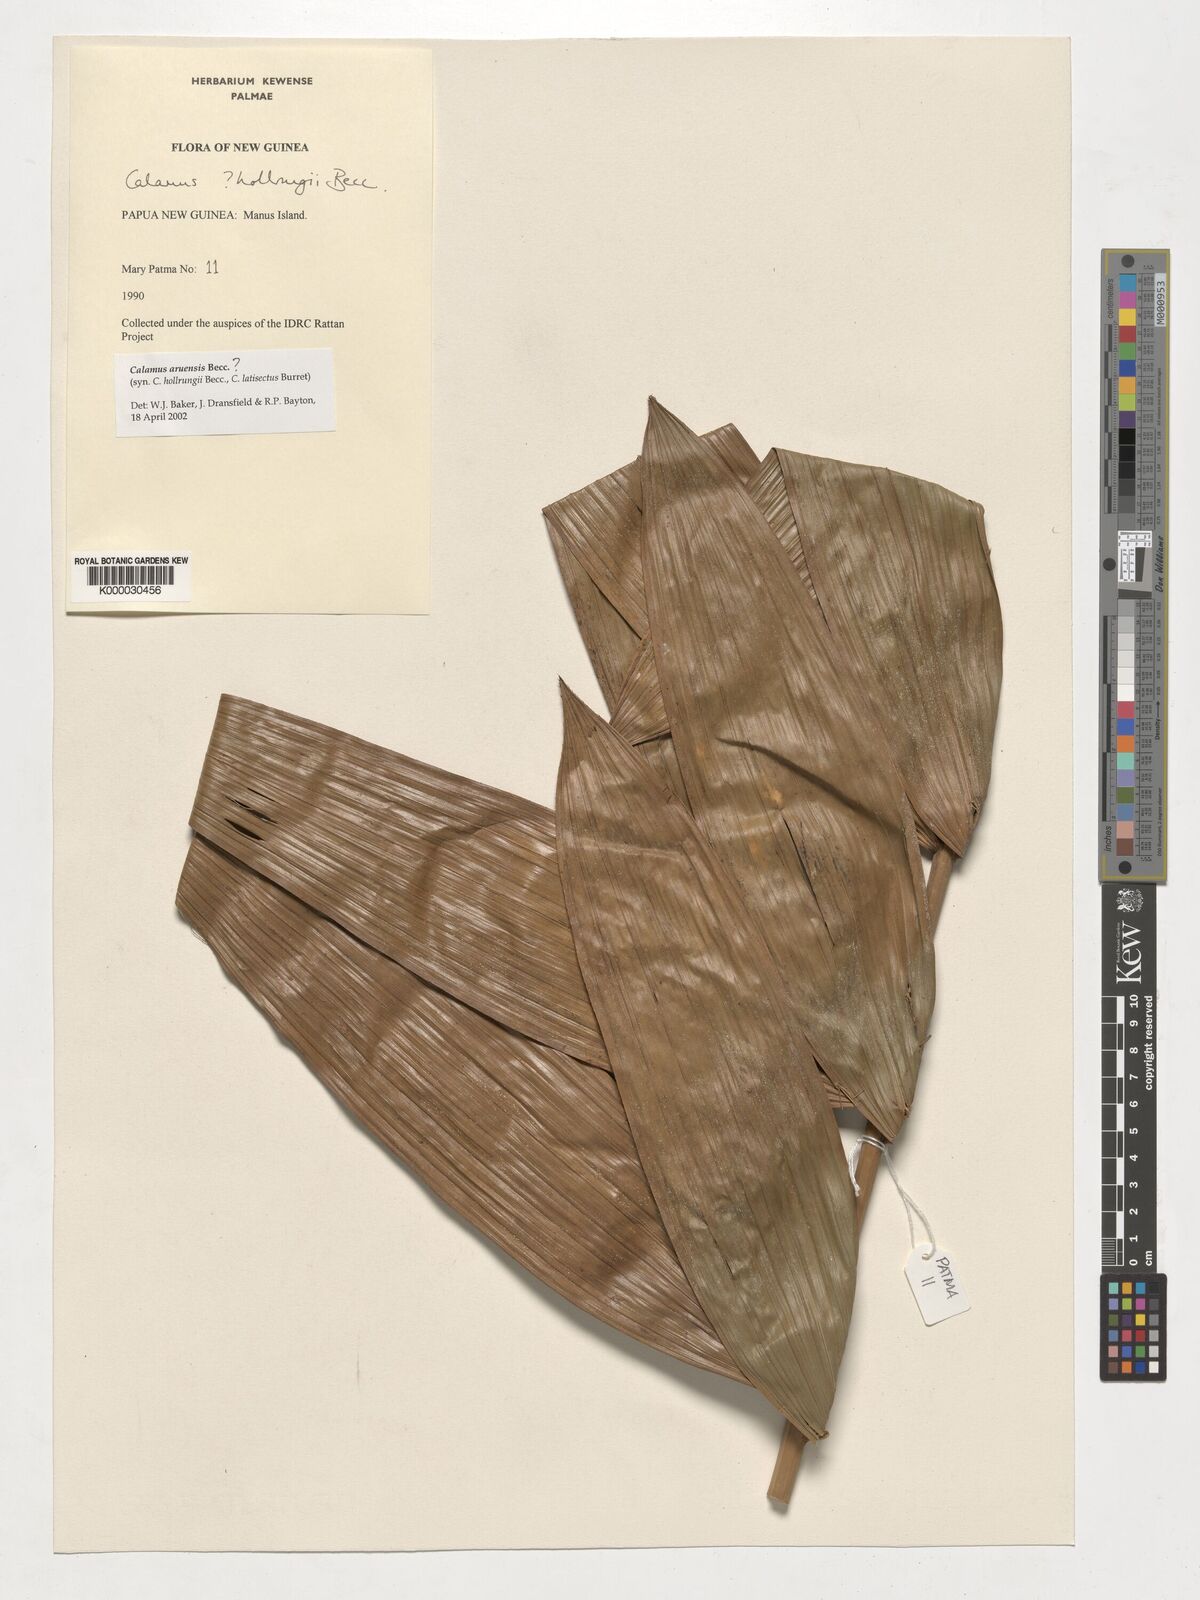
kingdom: Plantae
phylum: Tracheophyta
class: Liliopsida
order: Arecales
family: Arecaceae
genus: Calamus
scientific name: Calamus aruensis
